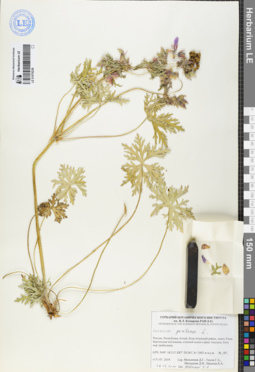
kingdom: Plantae
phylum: Tracheophyta
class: Magnoliopsida
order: Geraniales
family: Geraniaceae
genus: Geranium
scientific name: Geranium pratense
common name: Meadow crane's-bill
